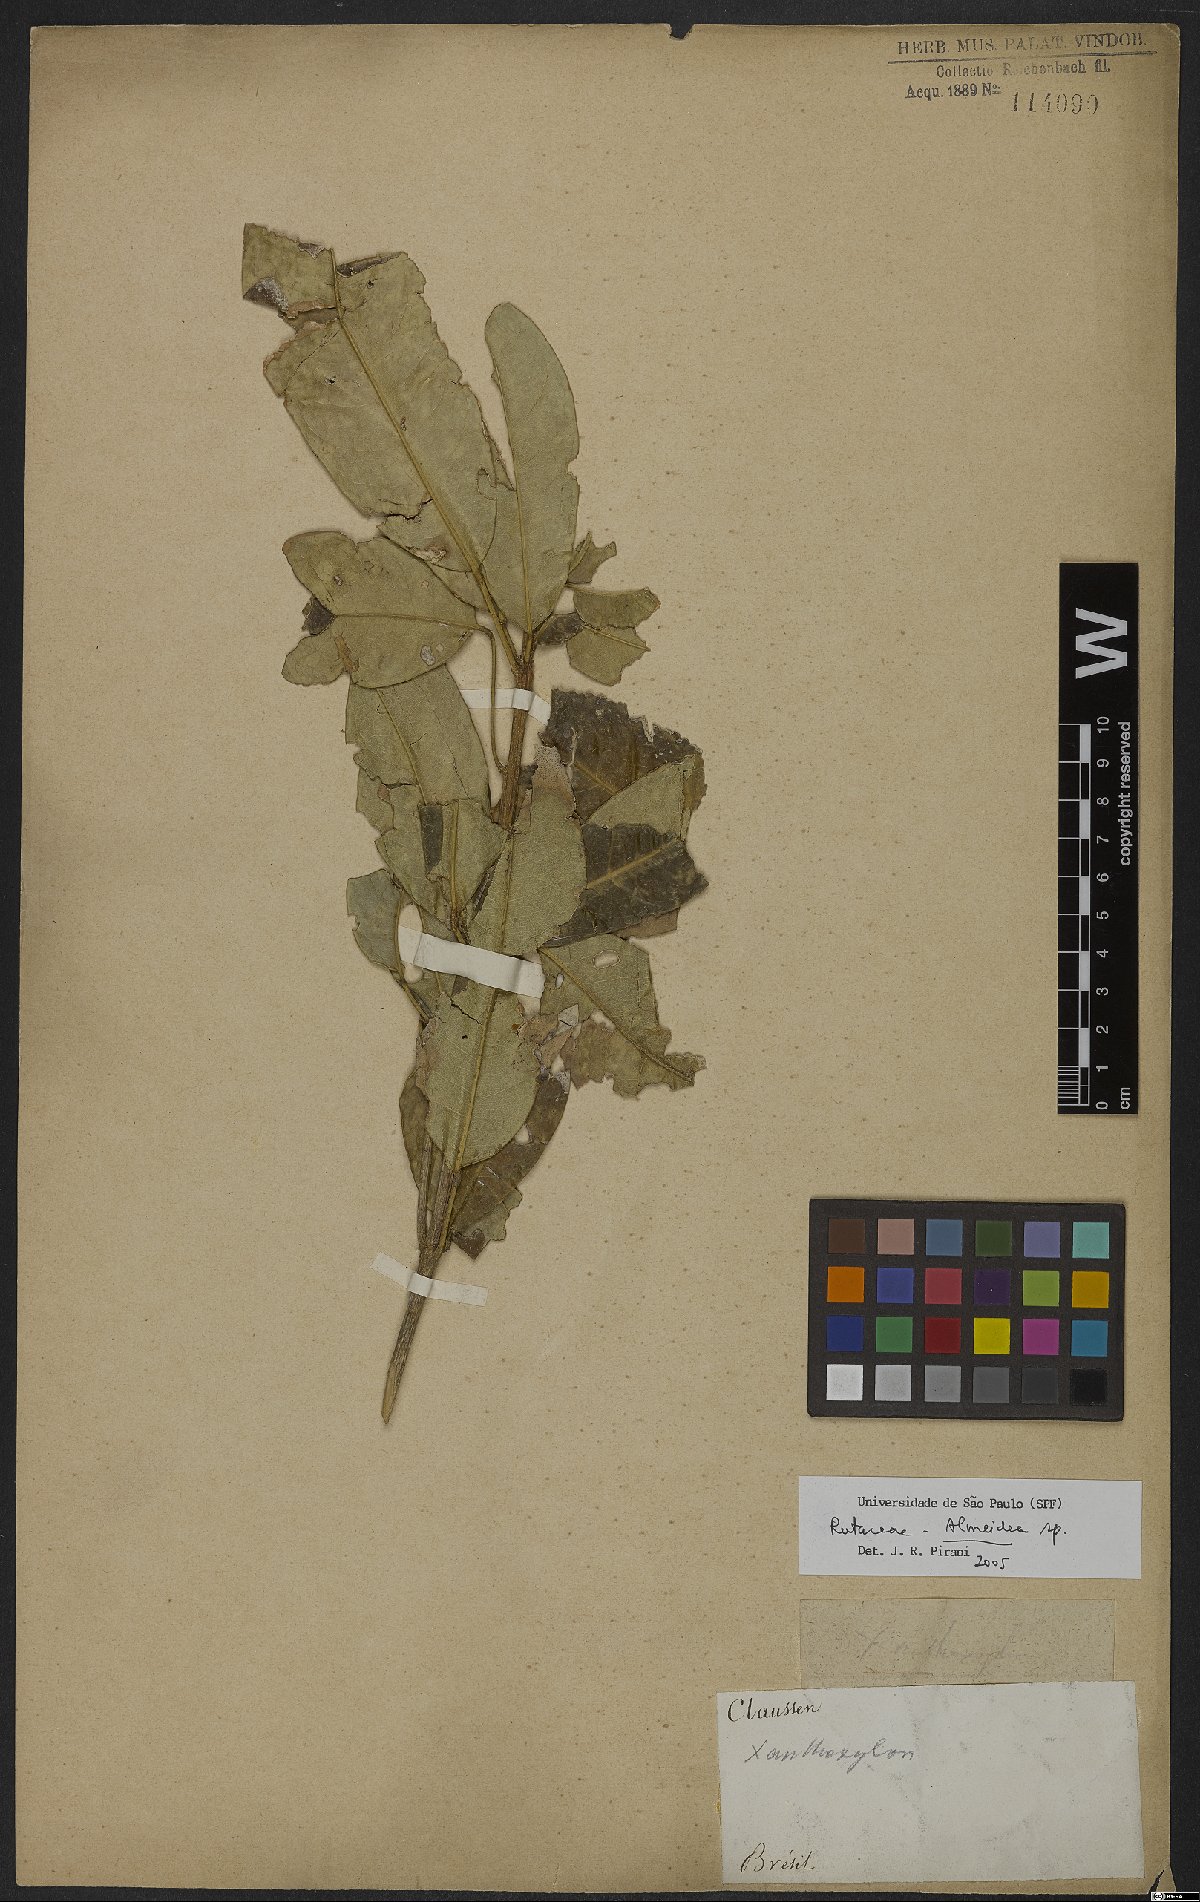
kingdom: Plantae
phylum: Tracheophyta
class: Magnoliopsida
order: Sapindales
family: Rutaceae
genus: Conchocarpus
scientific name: Conchocarpus
